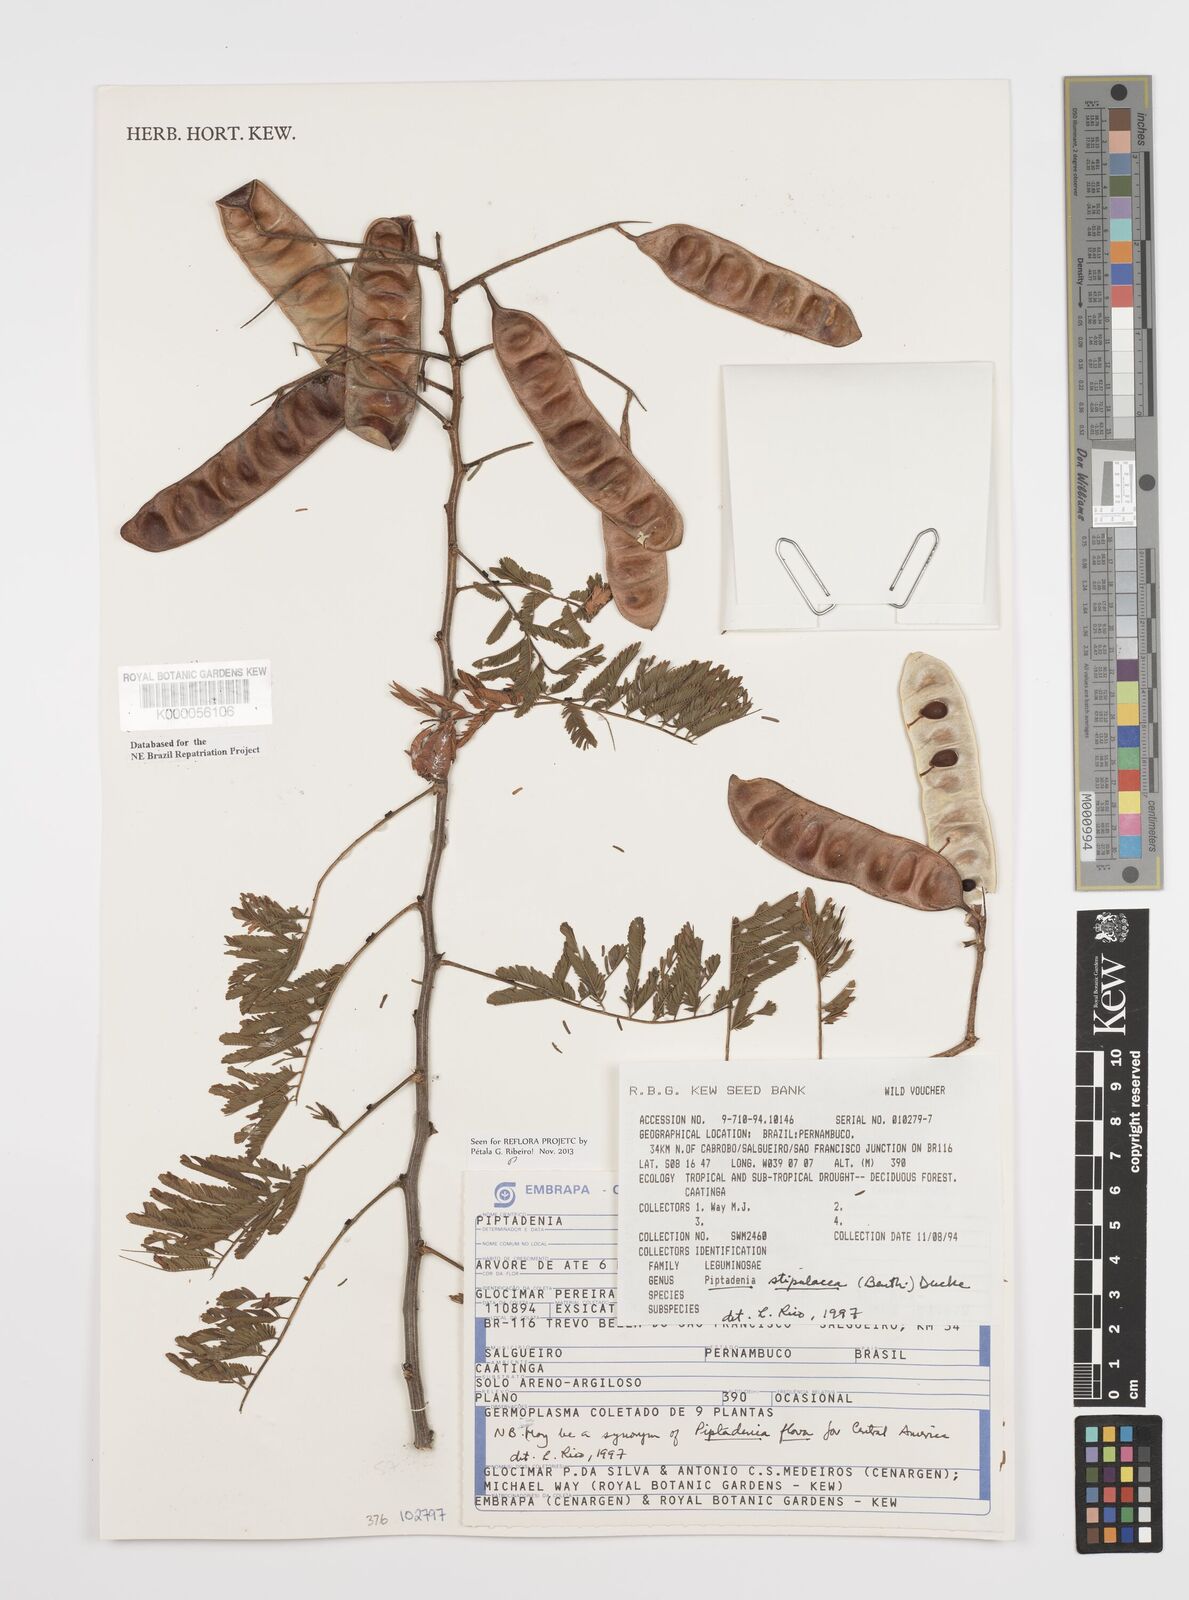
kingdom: Plantae
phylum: Tracheophyta
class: Magnoliopsida
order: Fabales
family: Fabaceae
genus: Piptadenia
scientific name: Piptadenia retusa
